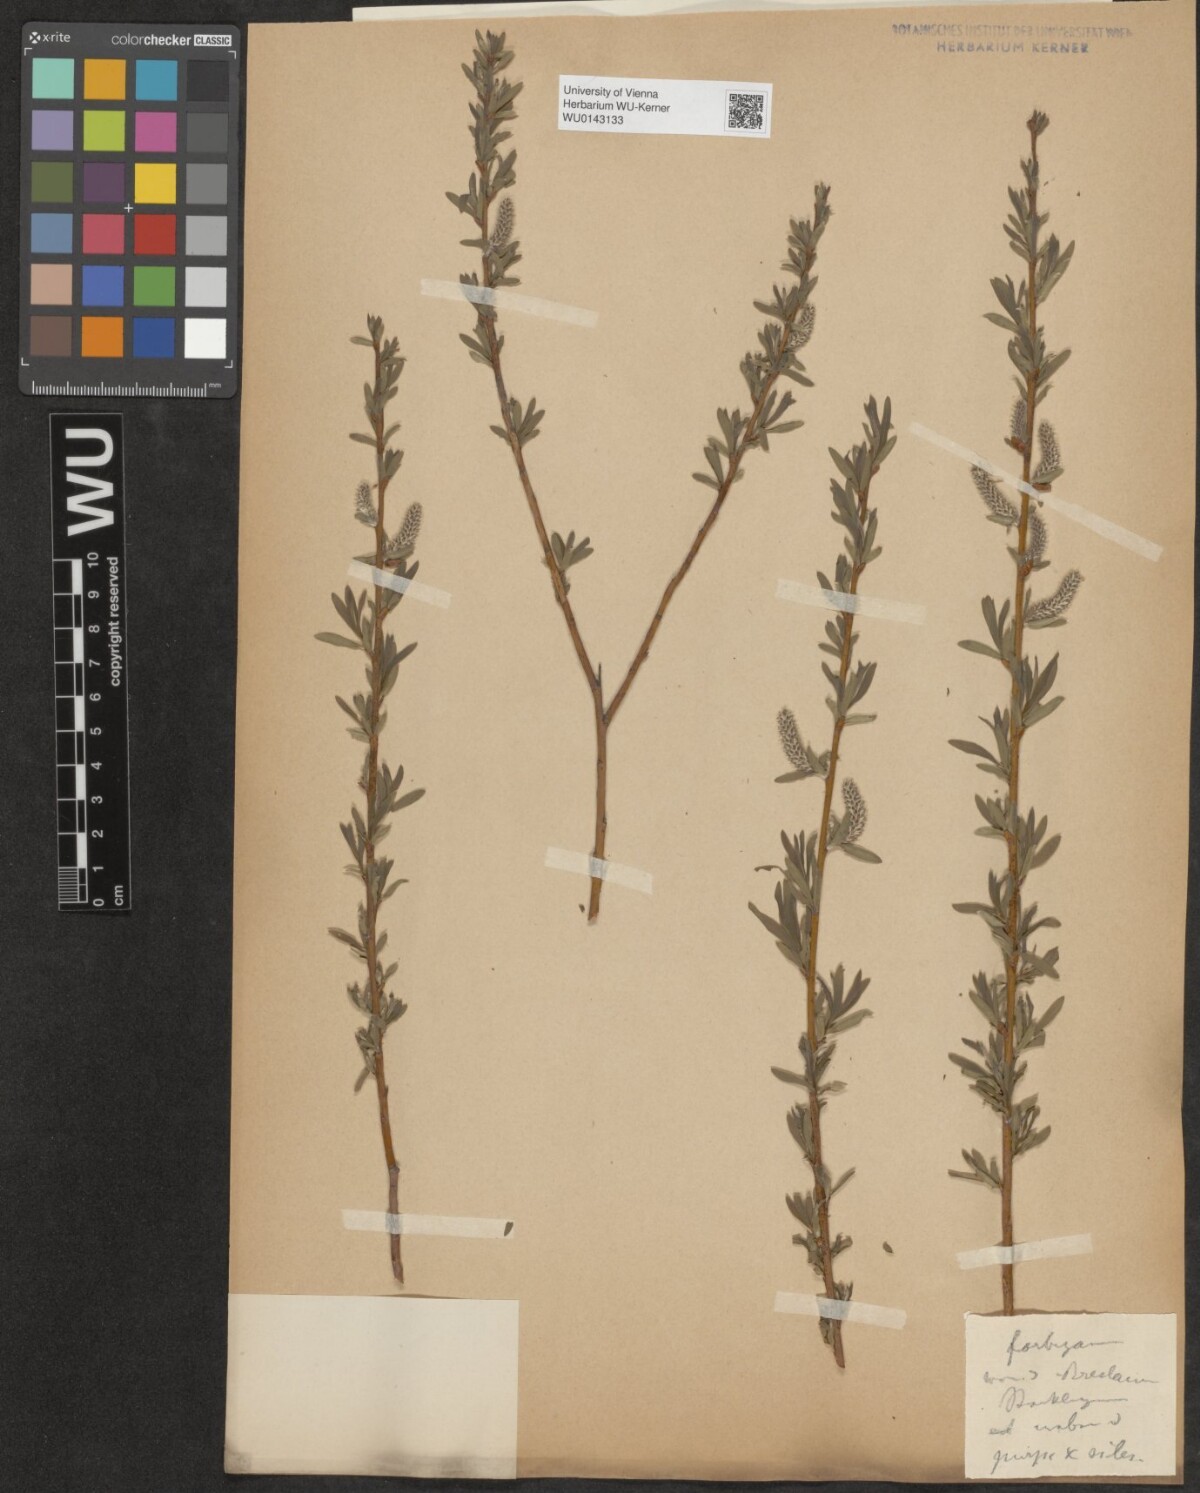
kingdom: Plantae
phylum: Tracheophyta
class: Magnoliopsida
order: Malpighiales
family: Salicaceae
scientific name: Salicaceae
